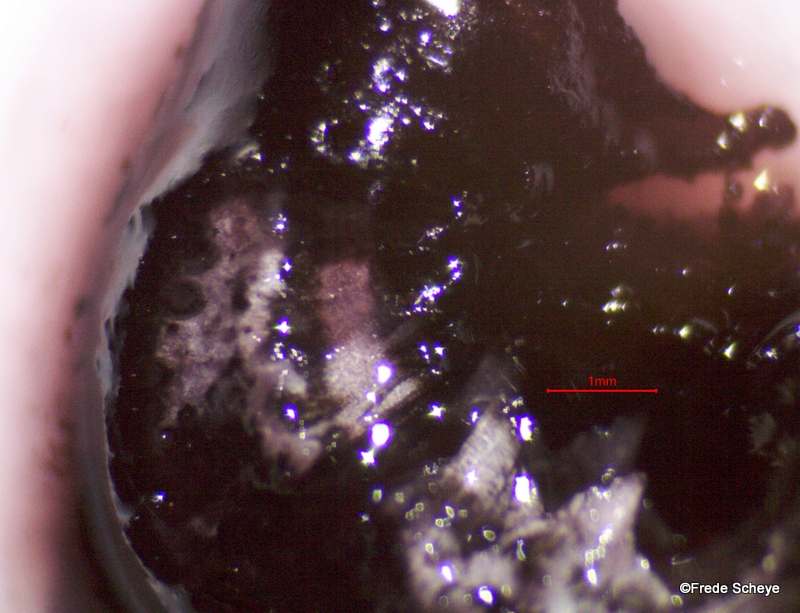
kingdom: Fungi
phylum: Ascomycota
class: Sordariomycetes
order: Xylariales
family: Hypoxylaceae
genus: Daldinia
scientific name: Daldinia concentrica
